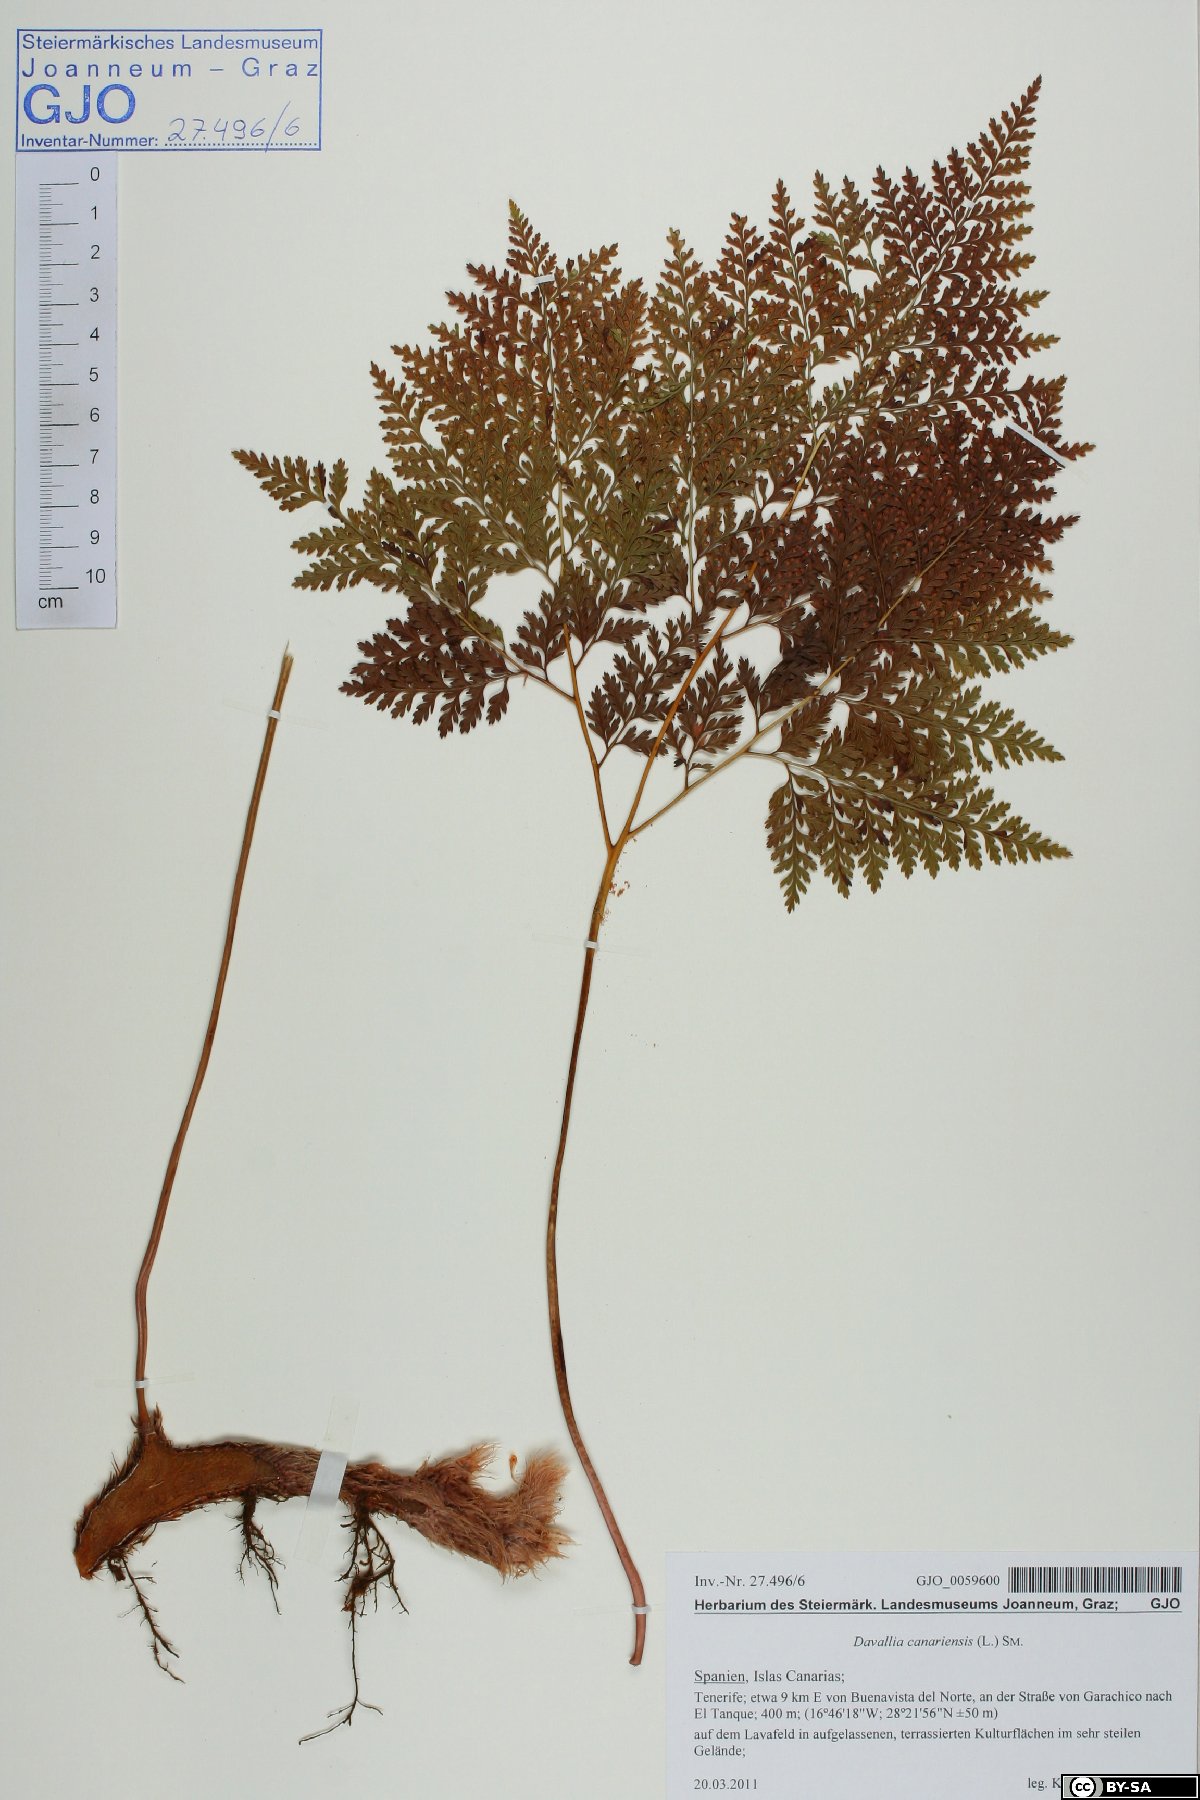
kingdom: Plantae
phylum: Tracheophyta
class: Polypodiopsida
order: Polypodiales
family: Davalliaceae
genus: Davallia
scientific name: Davallia canariensis
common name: Hare's-foot fern
